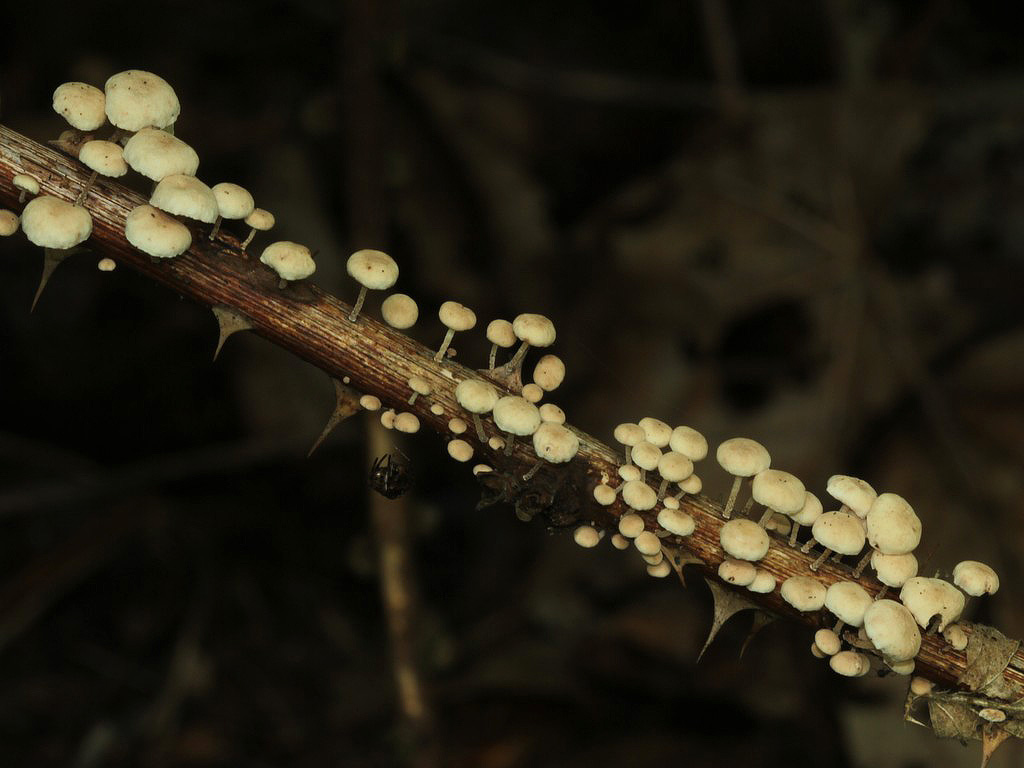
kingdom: Fungi
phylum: Basidiomycota
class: Agaricomycetes
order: Agaricales
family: Omphalotaceae
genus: Collybiopsis
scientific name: Collybiopsis ramealis
